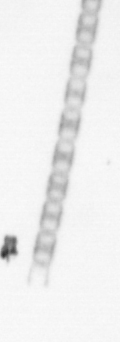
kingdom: Chromista
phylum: Ochrophyta
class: Bacillariophyceae
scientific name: Bacillariophyceae
